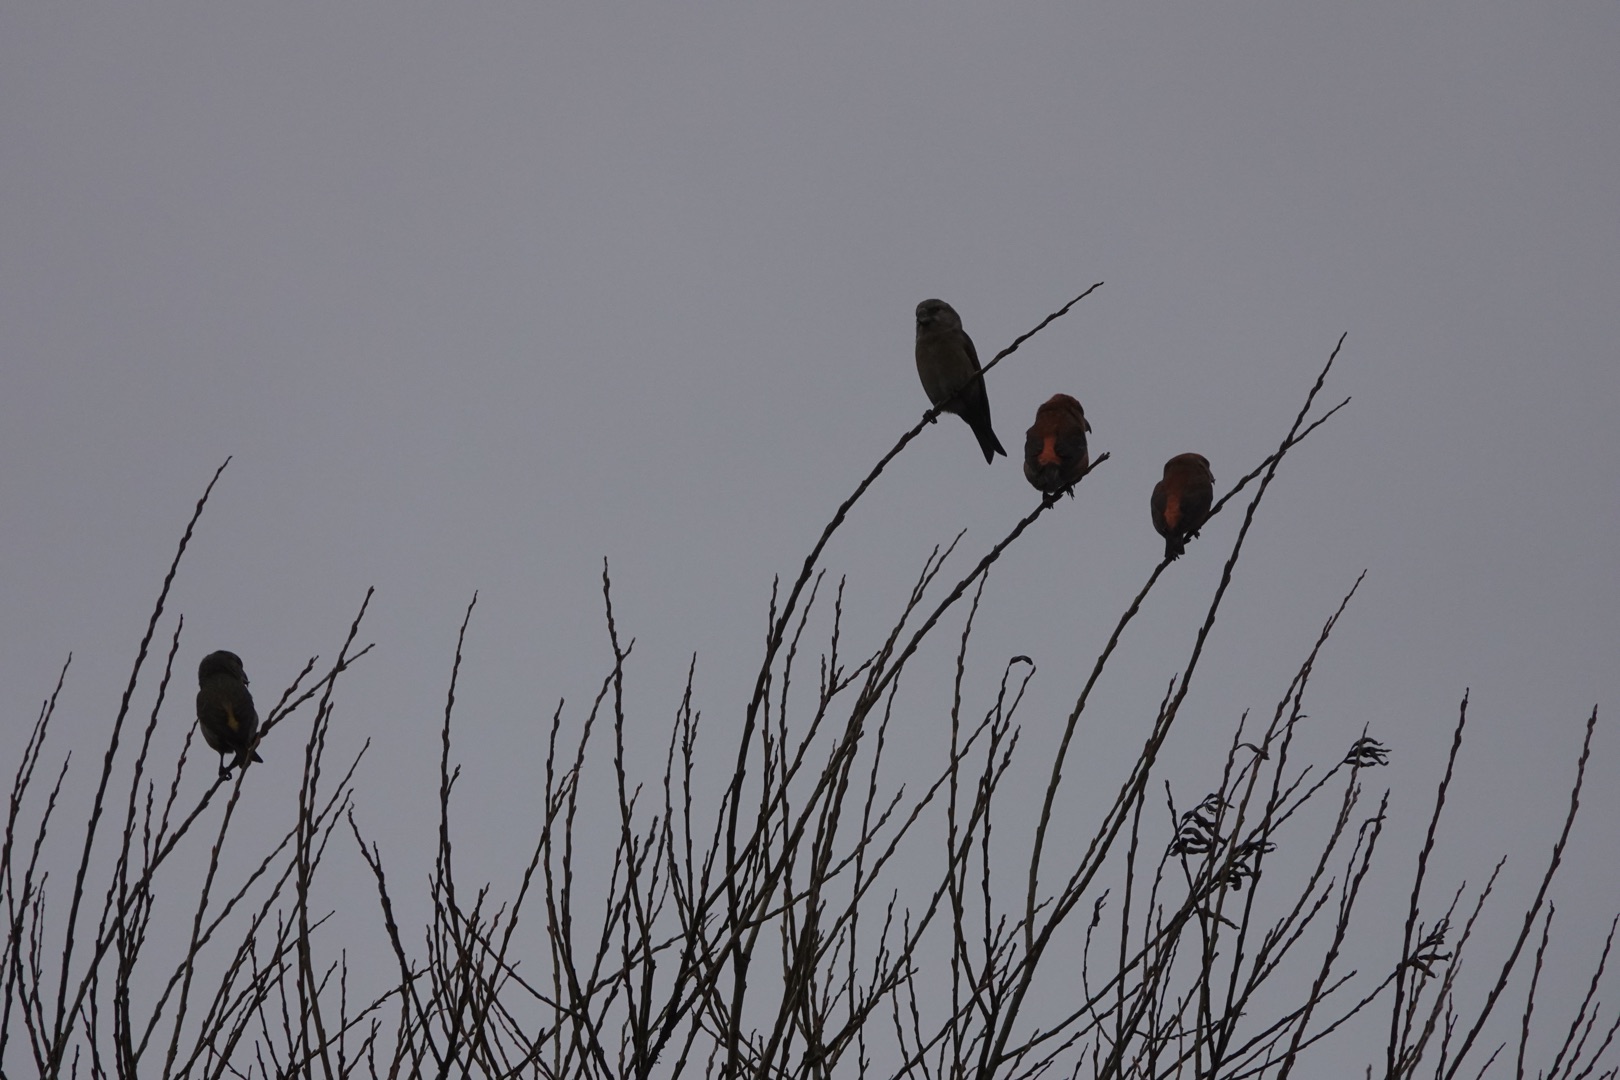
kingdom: Animalia
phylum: Chordata
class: Aves
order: Passeriformes
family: Fringillidae
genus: Loxia
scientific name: Loxia pytyopsittacus
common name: Stor korsnæb
